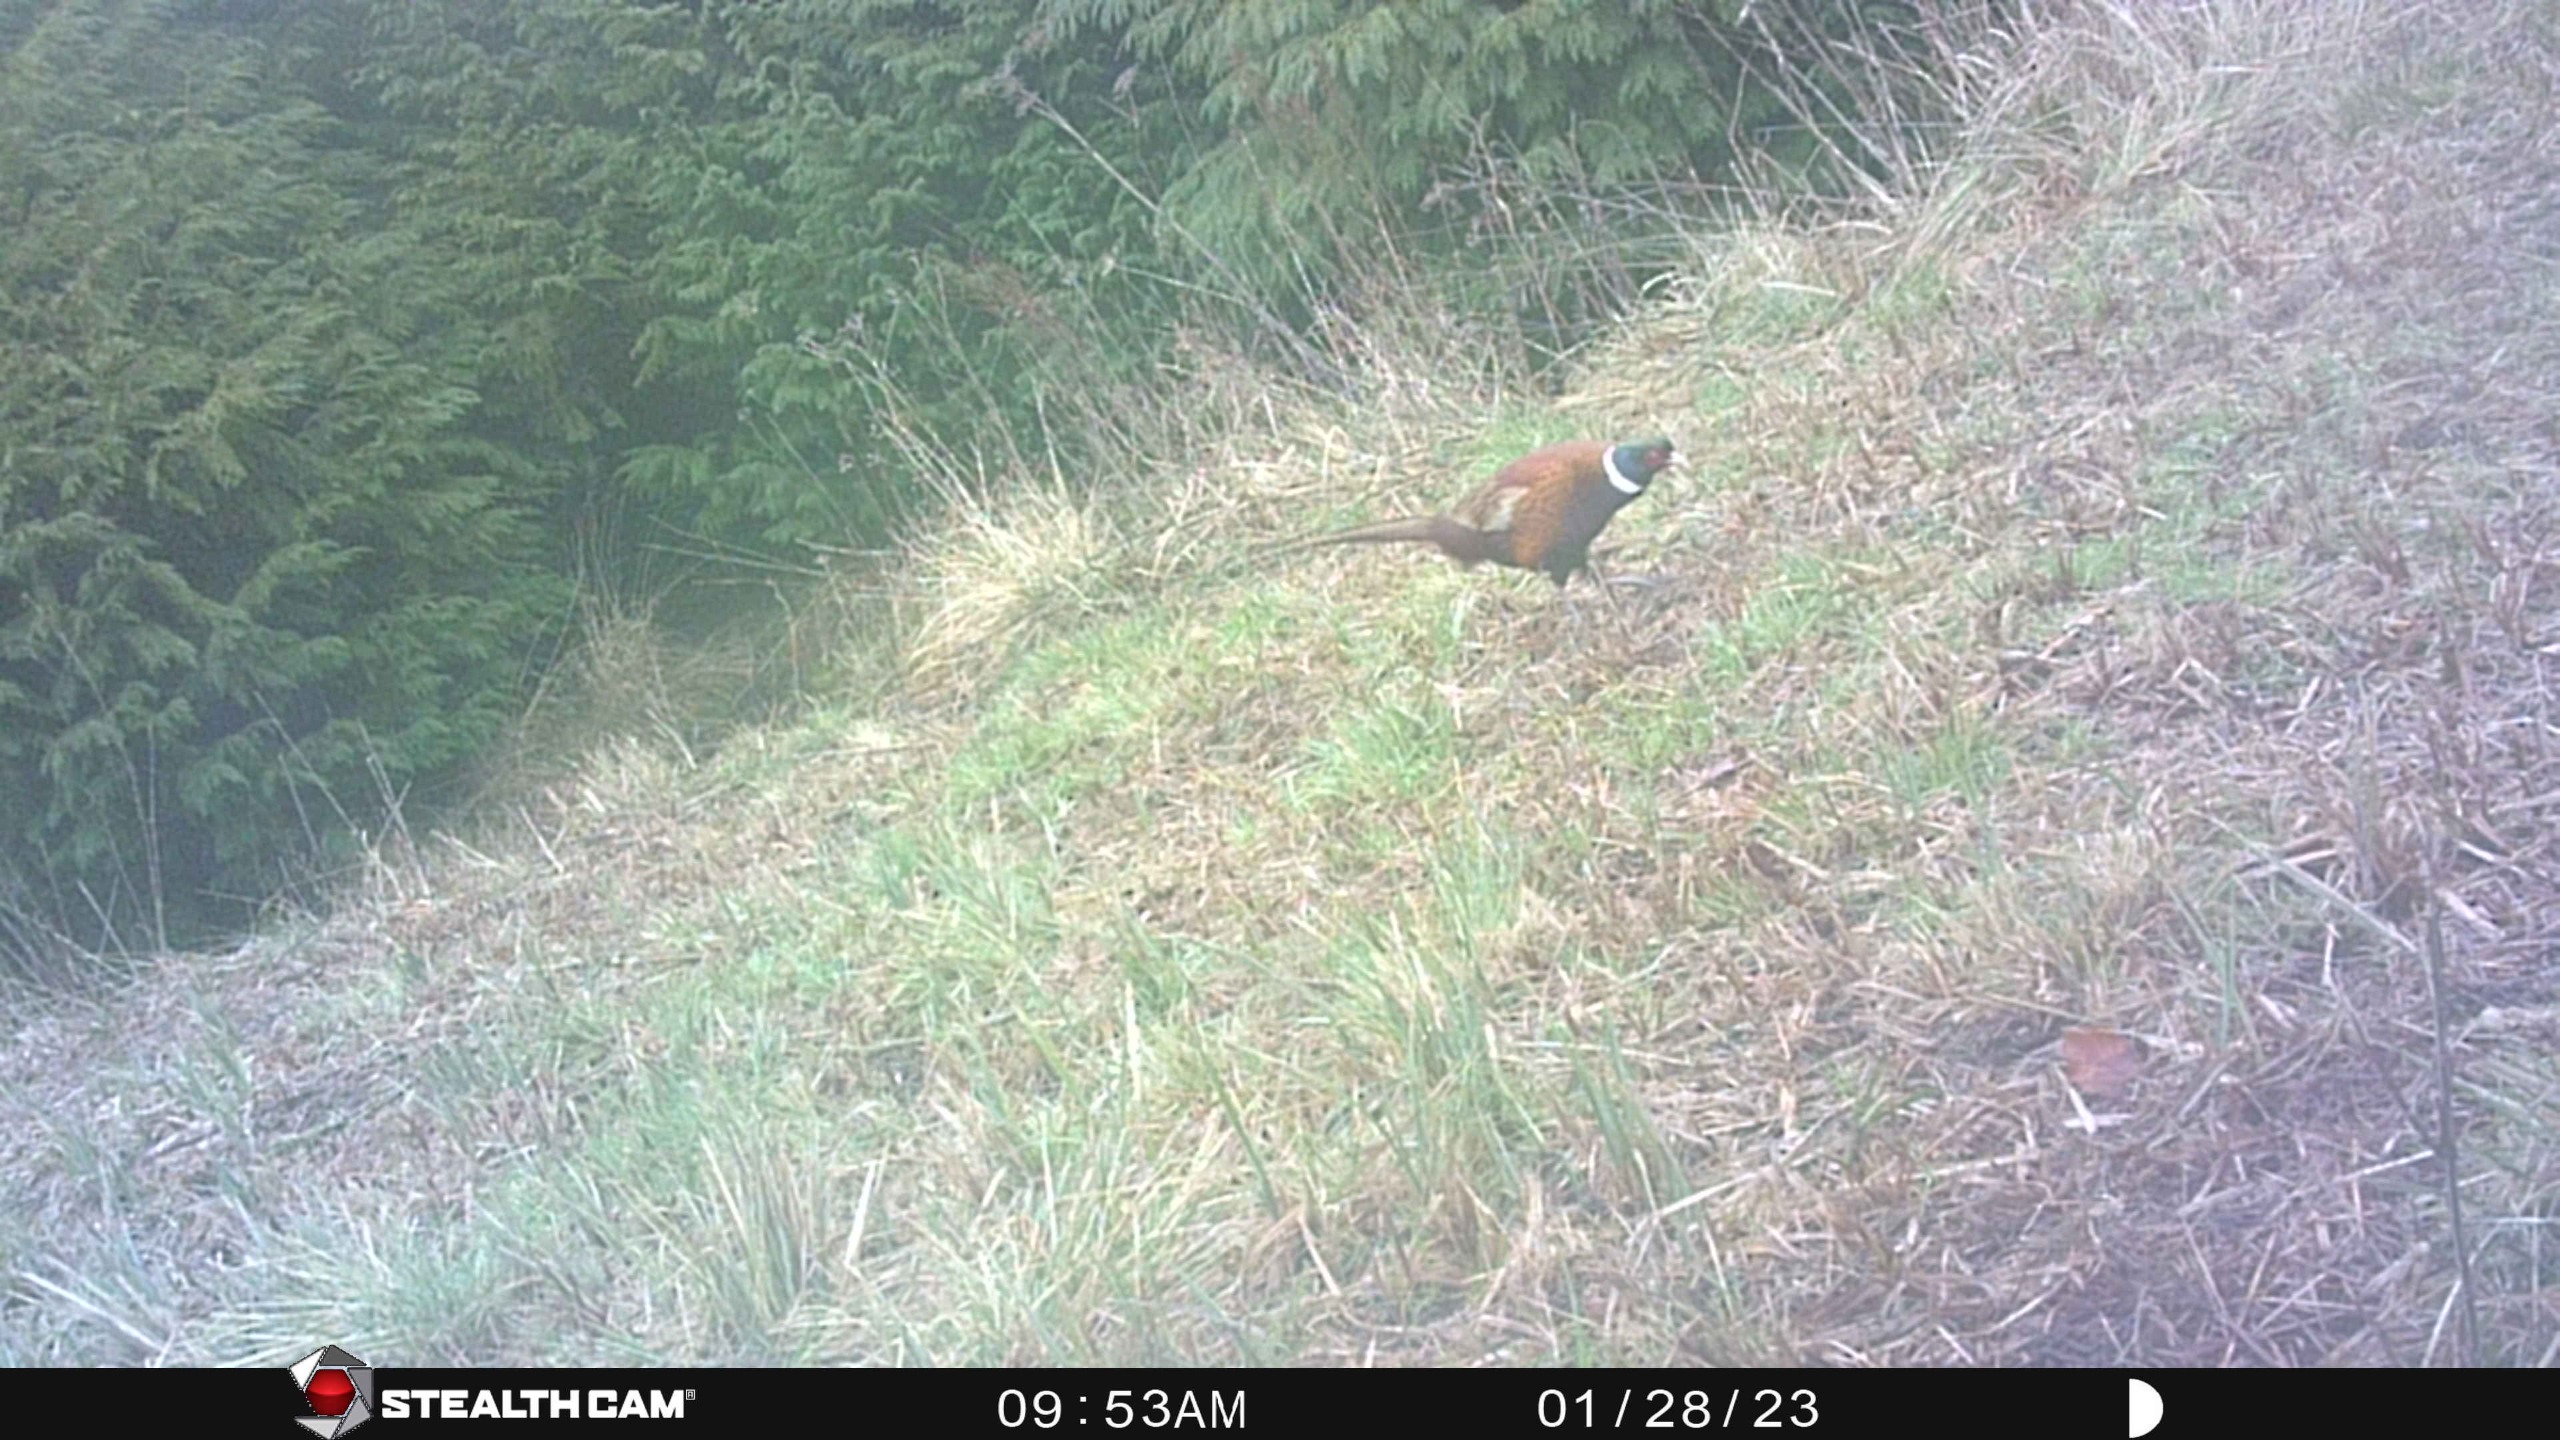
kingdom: Animalia
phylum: Chordata
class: Aves
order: Galliformes
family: Phasianidae
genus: Phasianus
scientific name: Phasianus colchicus
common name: Fasan
